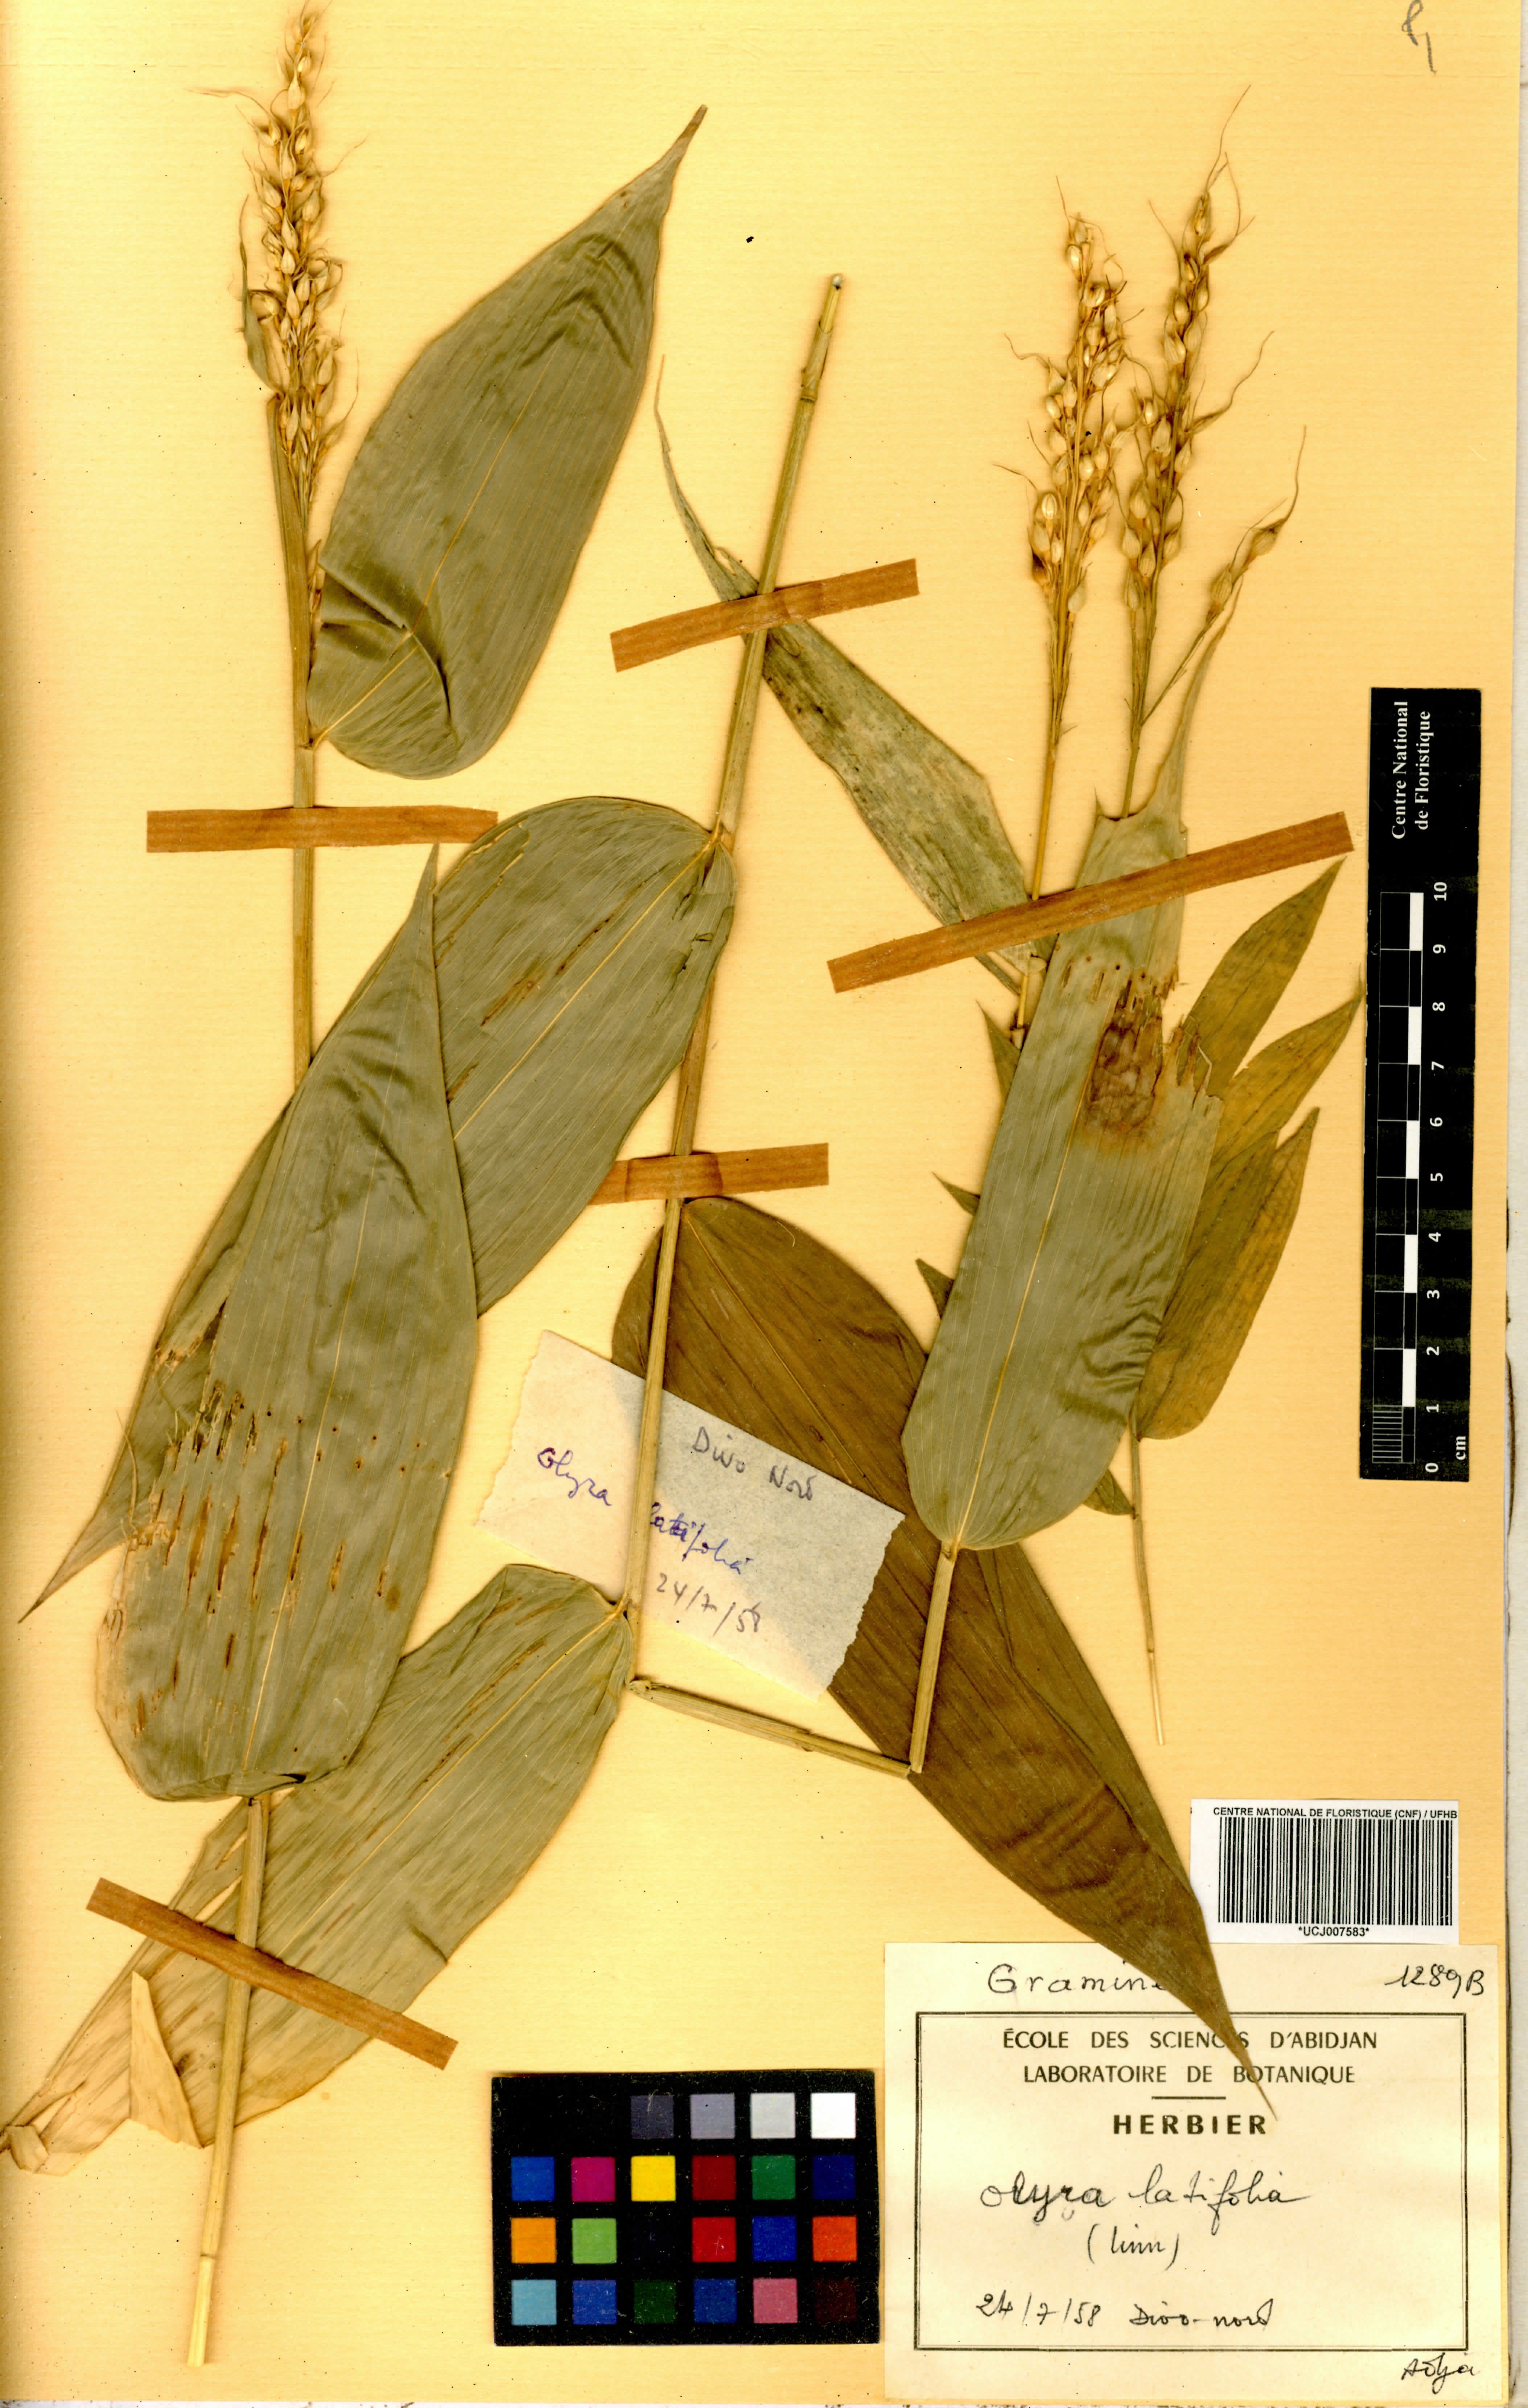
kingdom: Plantae
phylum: Tracheophyta
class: Liliopsida
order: Poales
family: Poaceae
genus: Olyra
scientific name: Olyra latifolia
